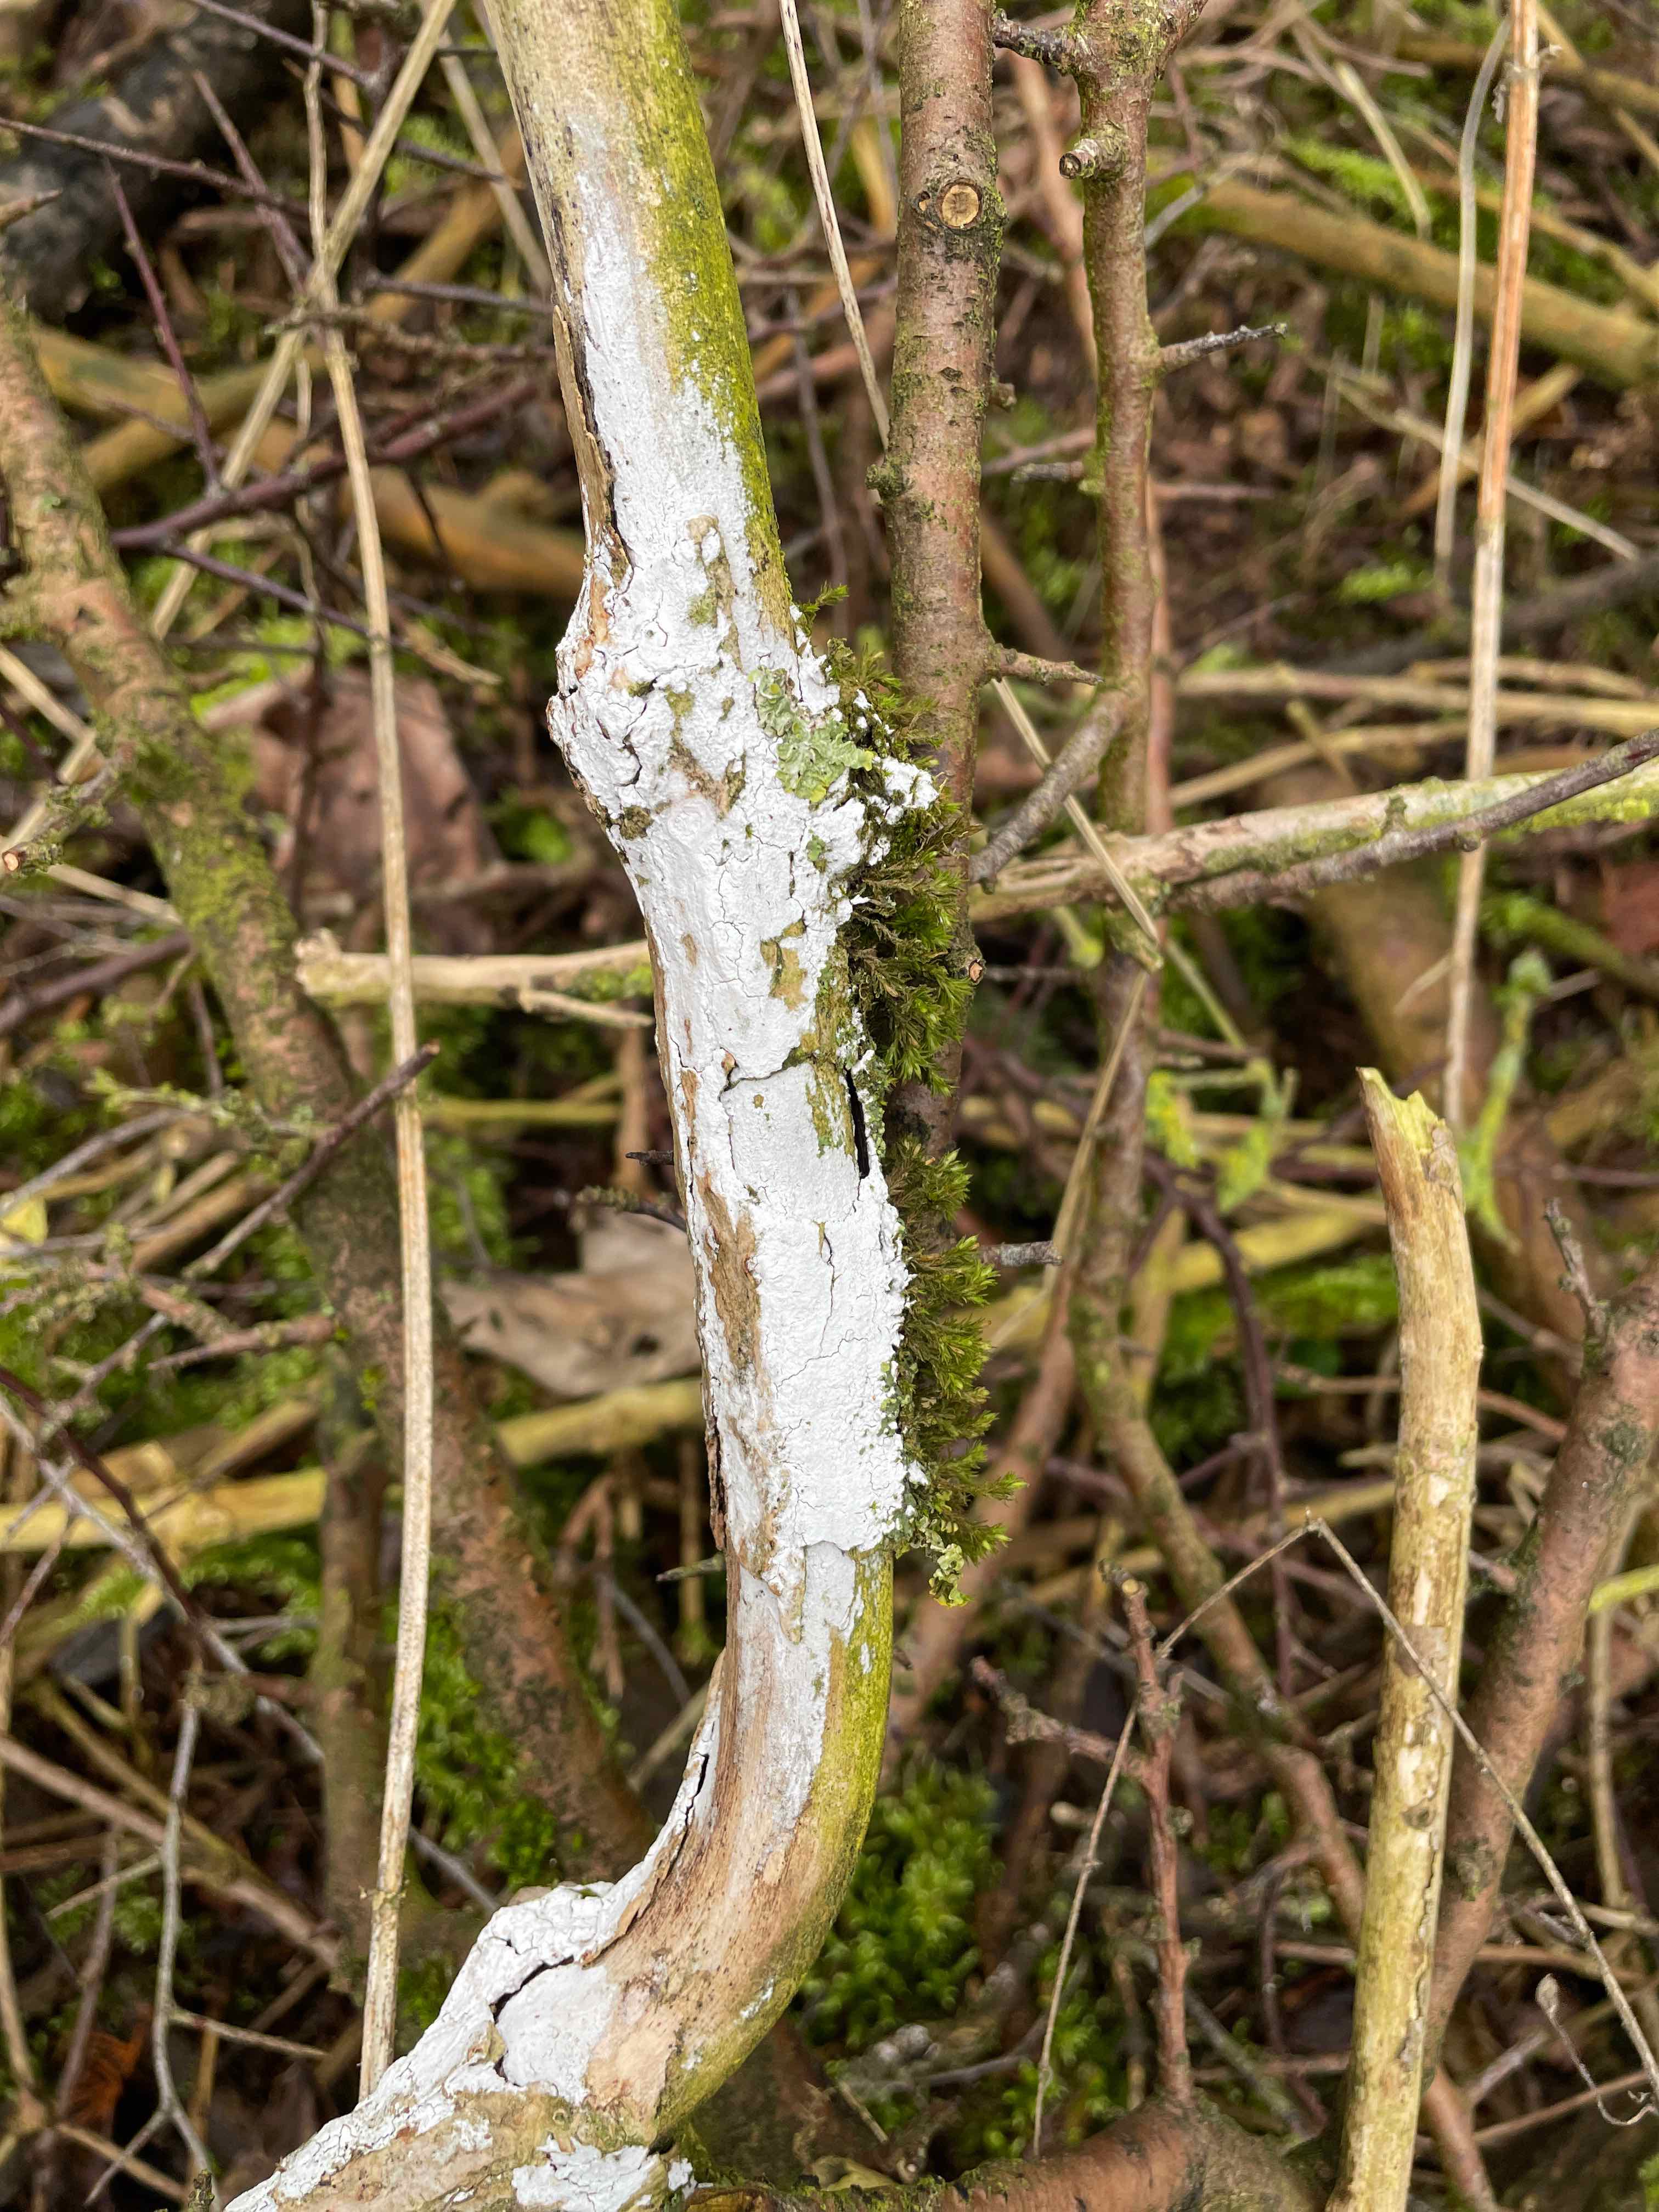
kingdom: Fungi
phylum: Basidiomycota
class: Agaricomycetes
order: Corticiales
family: Corticiaceae
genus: Lyomyces
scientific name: Lyomyces sambuci
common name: almindelig hyldehinde
